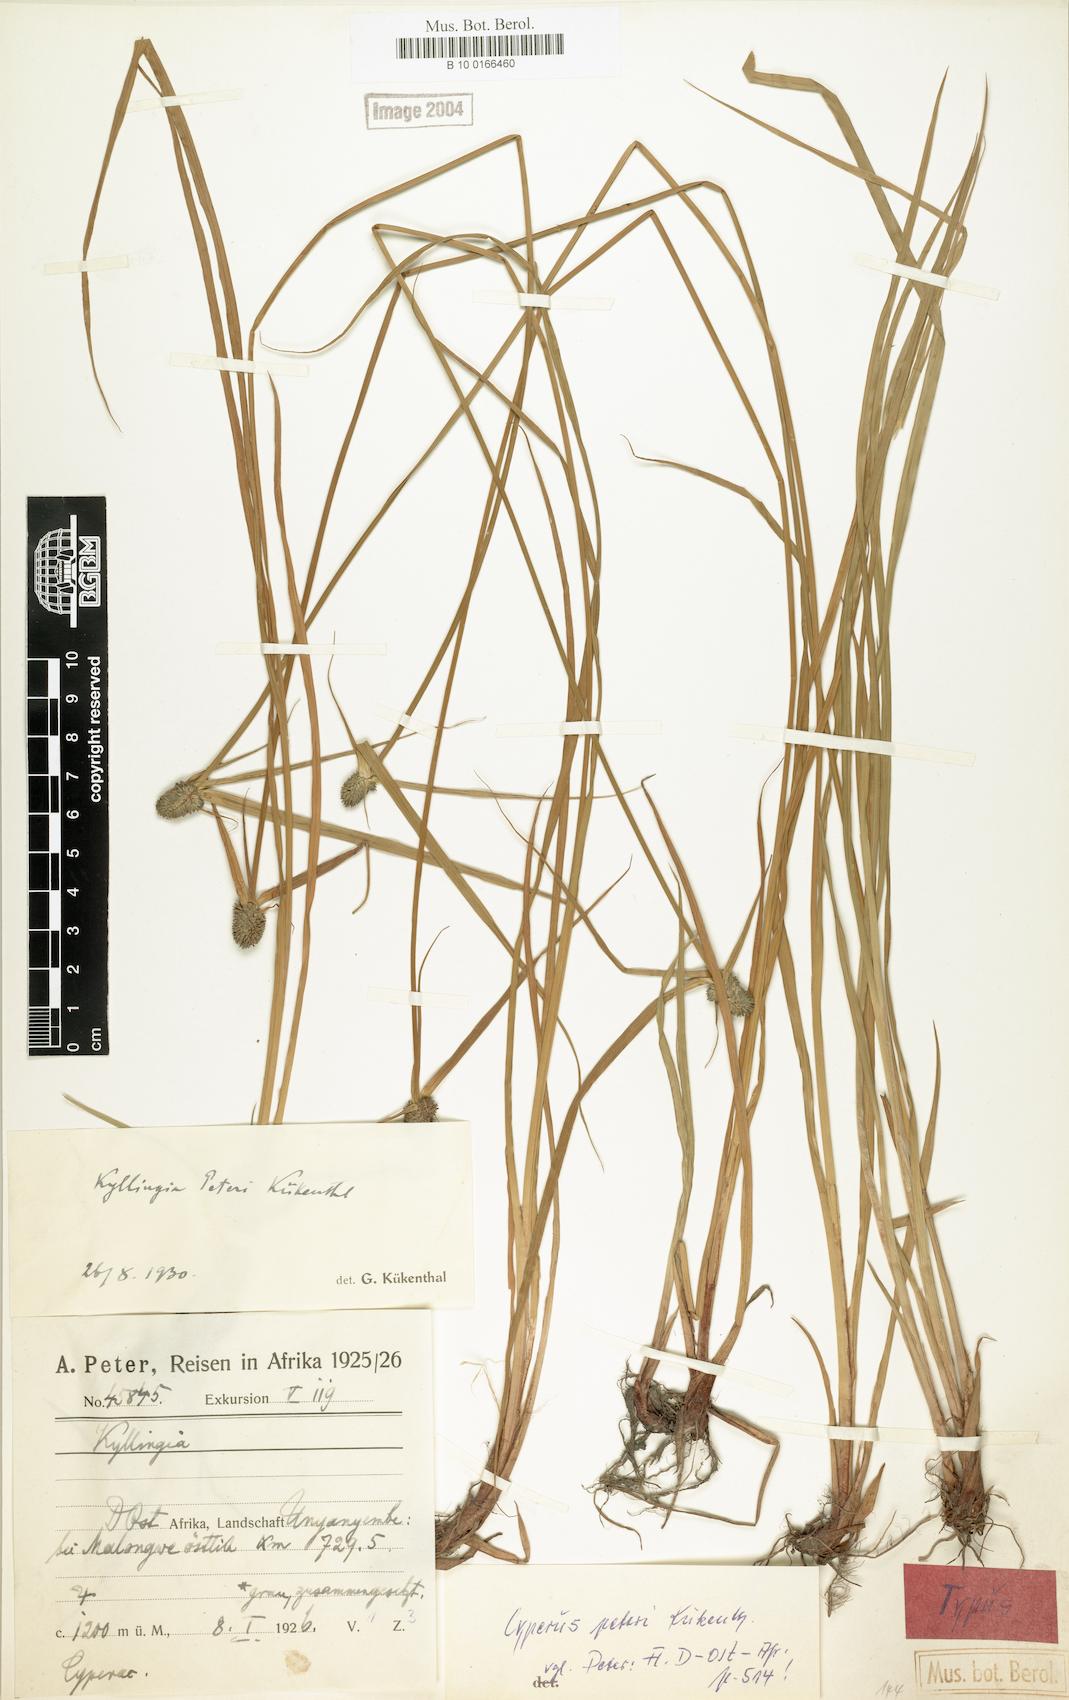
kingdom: Plantae
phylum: Tracheophyta
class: Liliopsida
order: Poales
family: Cyperaceae
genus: Cyperus
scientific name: Cyperus peteri
